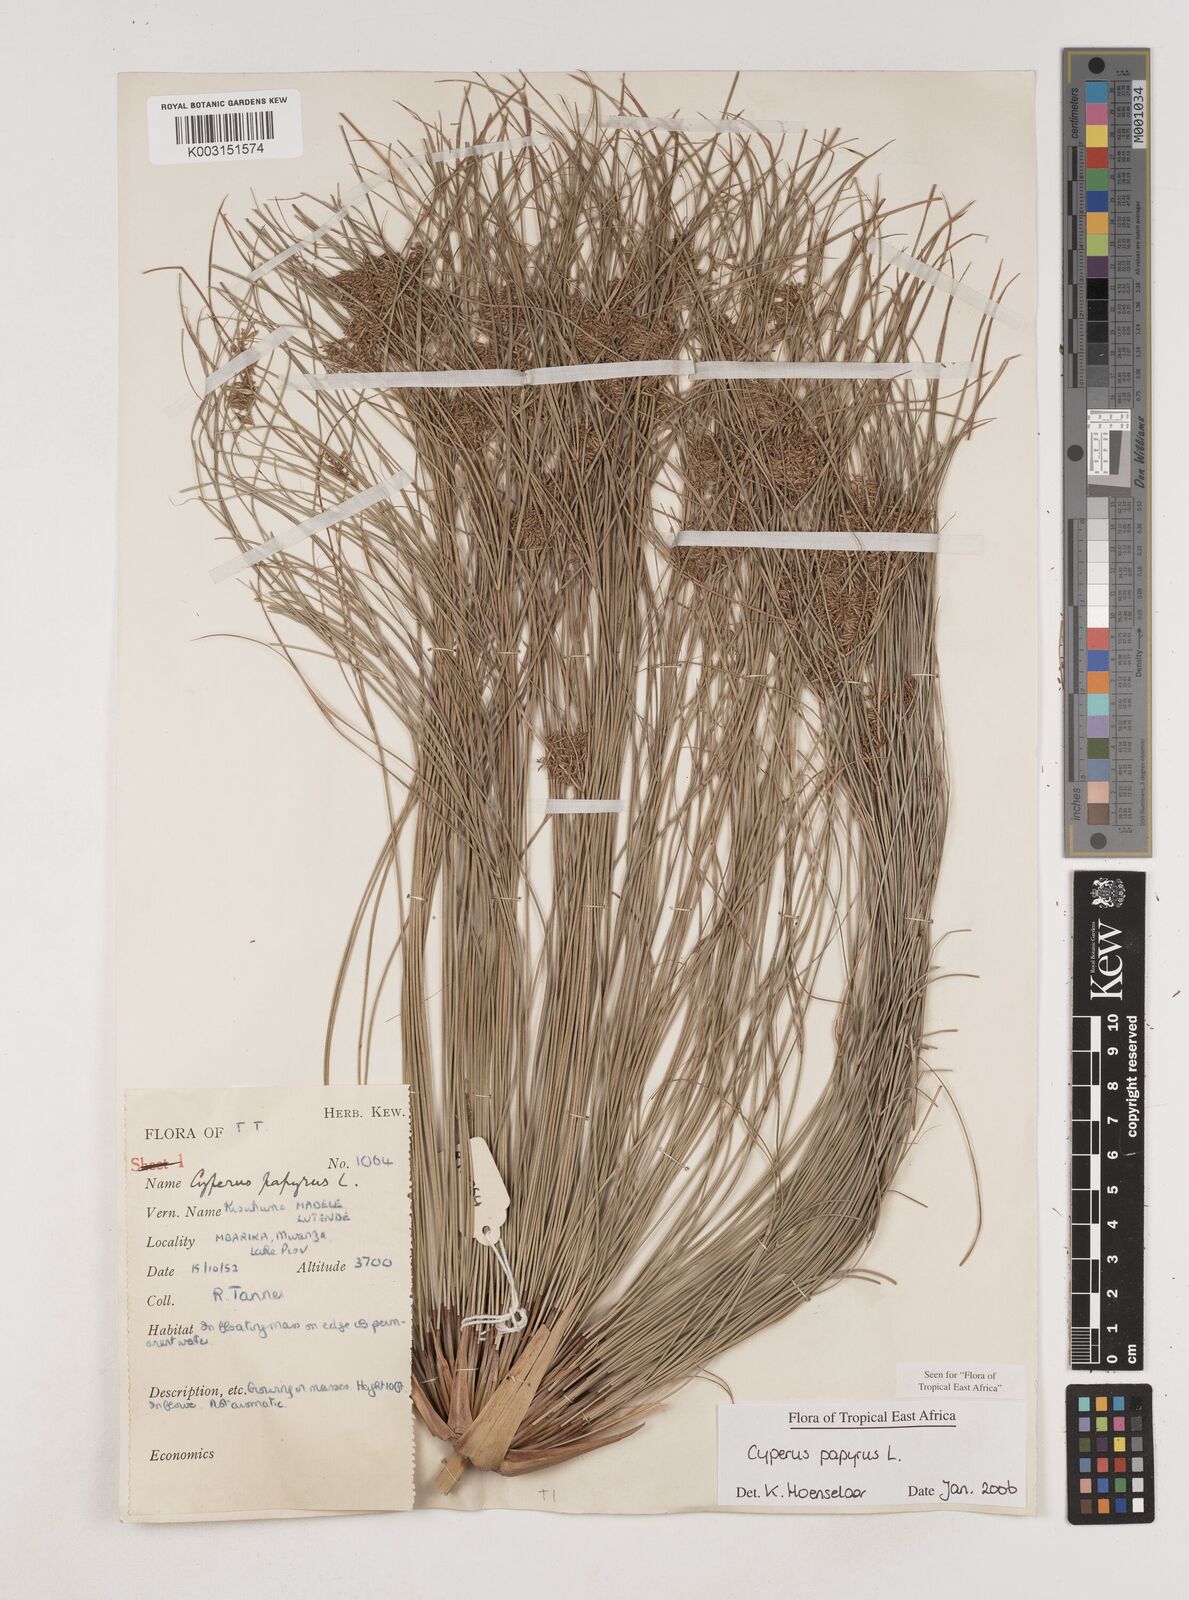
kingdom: Plantae
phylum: Tracheophyta
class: Liliopsida
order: Poales
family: Cyperaceae
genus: Cyperus
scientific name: Cyperus papyrus
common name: Papyrus
